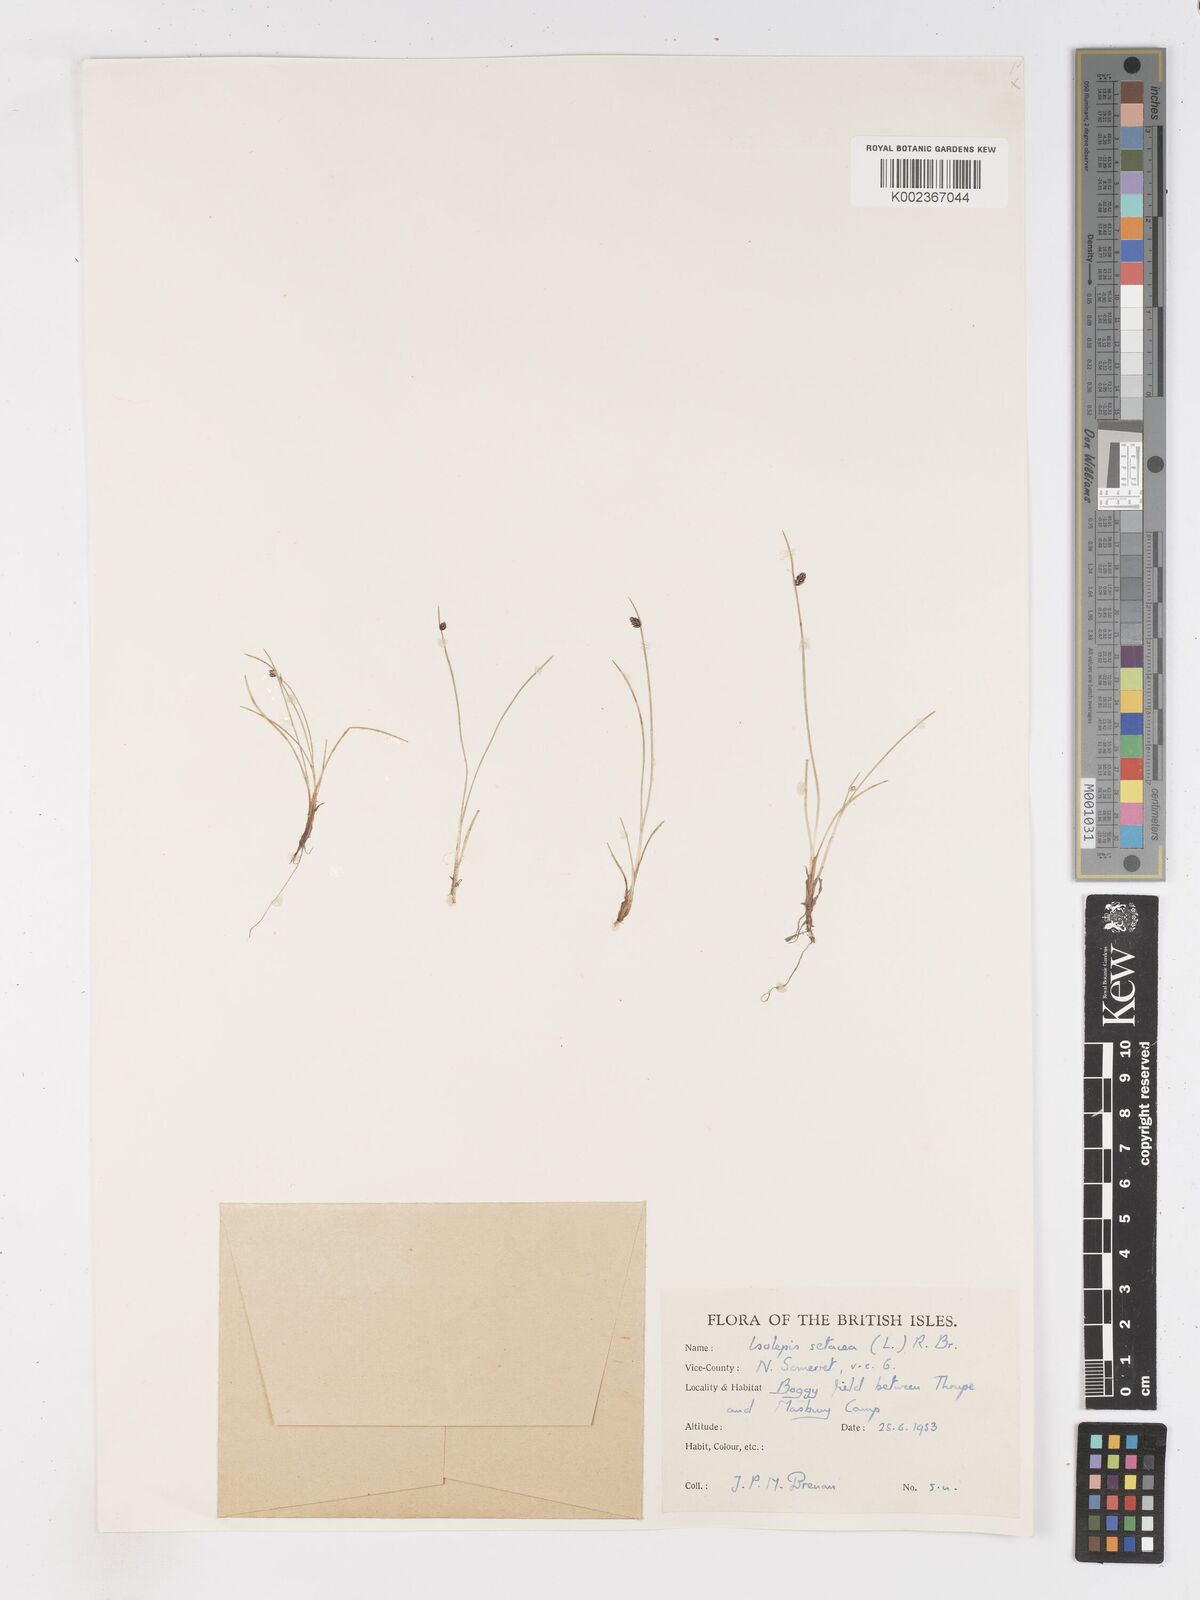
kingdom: Plantae
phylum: Tracheophyta
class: Liliopsida
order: Poales
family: Cyperaceae
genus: Isolepis
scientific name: Isolepis setacea
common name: Bristle club-rush
